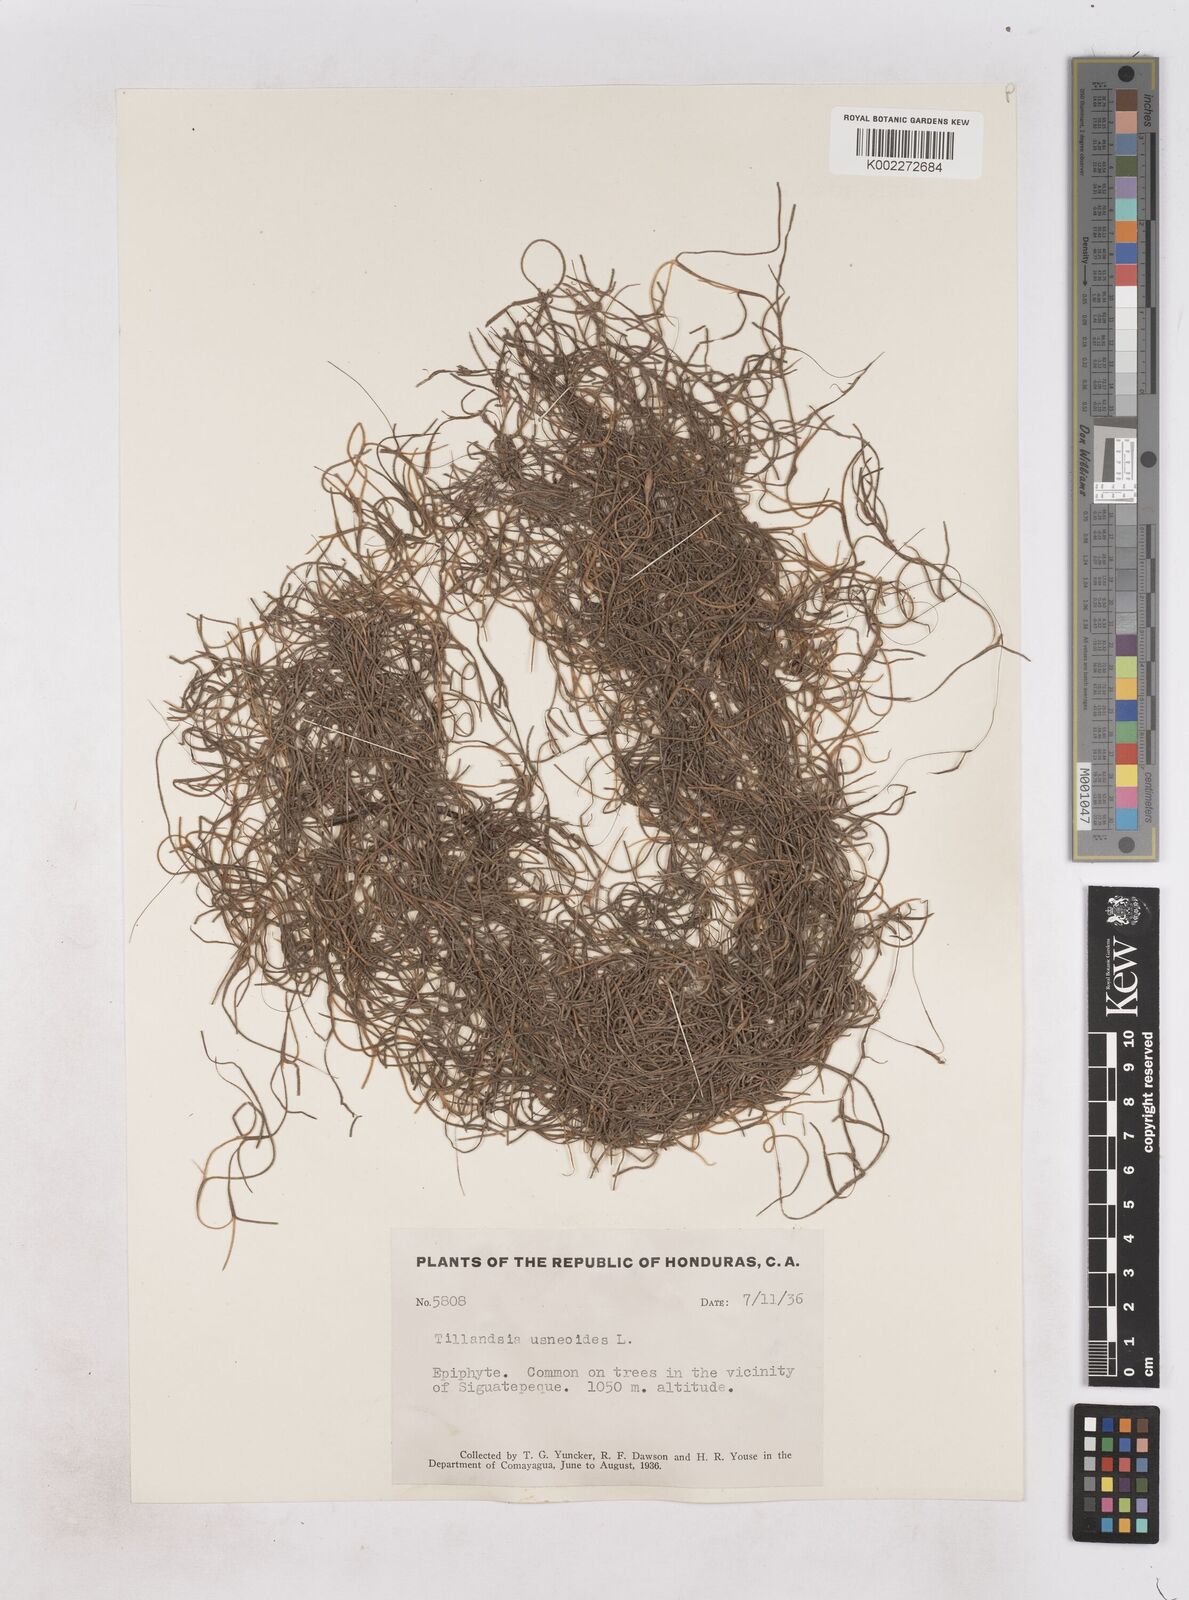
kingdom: Plantae
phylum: Tracheophyta
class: Liliopsida
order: Poales
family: Bromeliaceae
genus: Tillandsia
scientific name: Tillandsia usneoides
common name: Spanish moss
